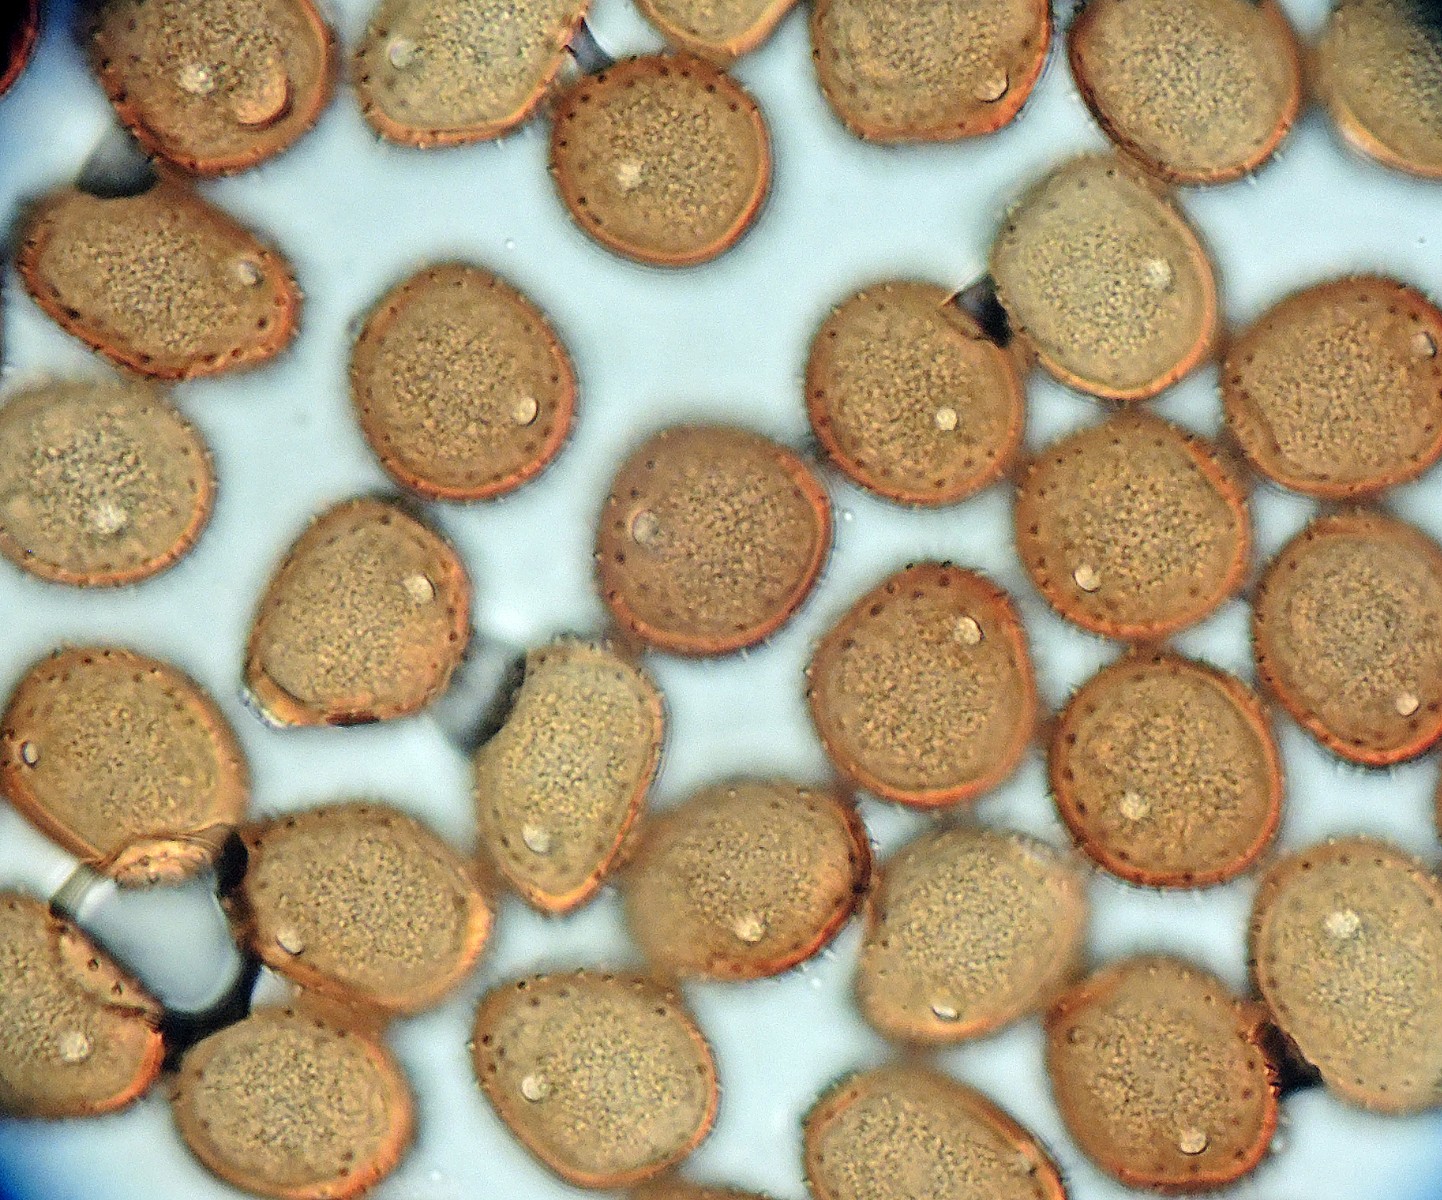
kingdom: Fungi
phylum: Basidiomycota
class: Pucciniomycetes
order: Pucciniales
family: Pucciniaceae
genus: Puccinia
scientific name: Puccinia hieracii
